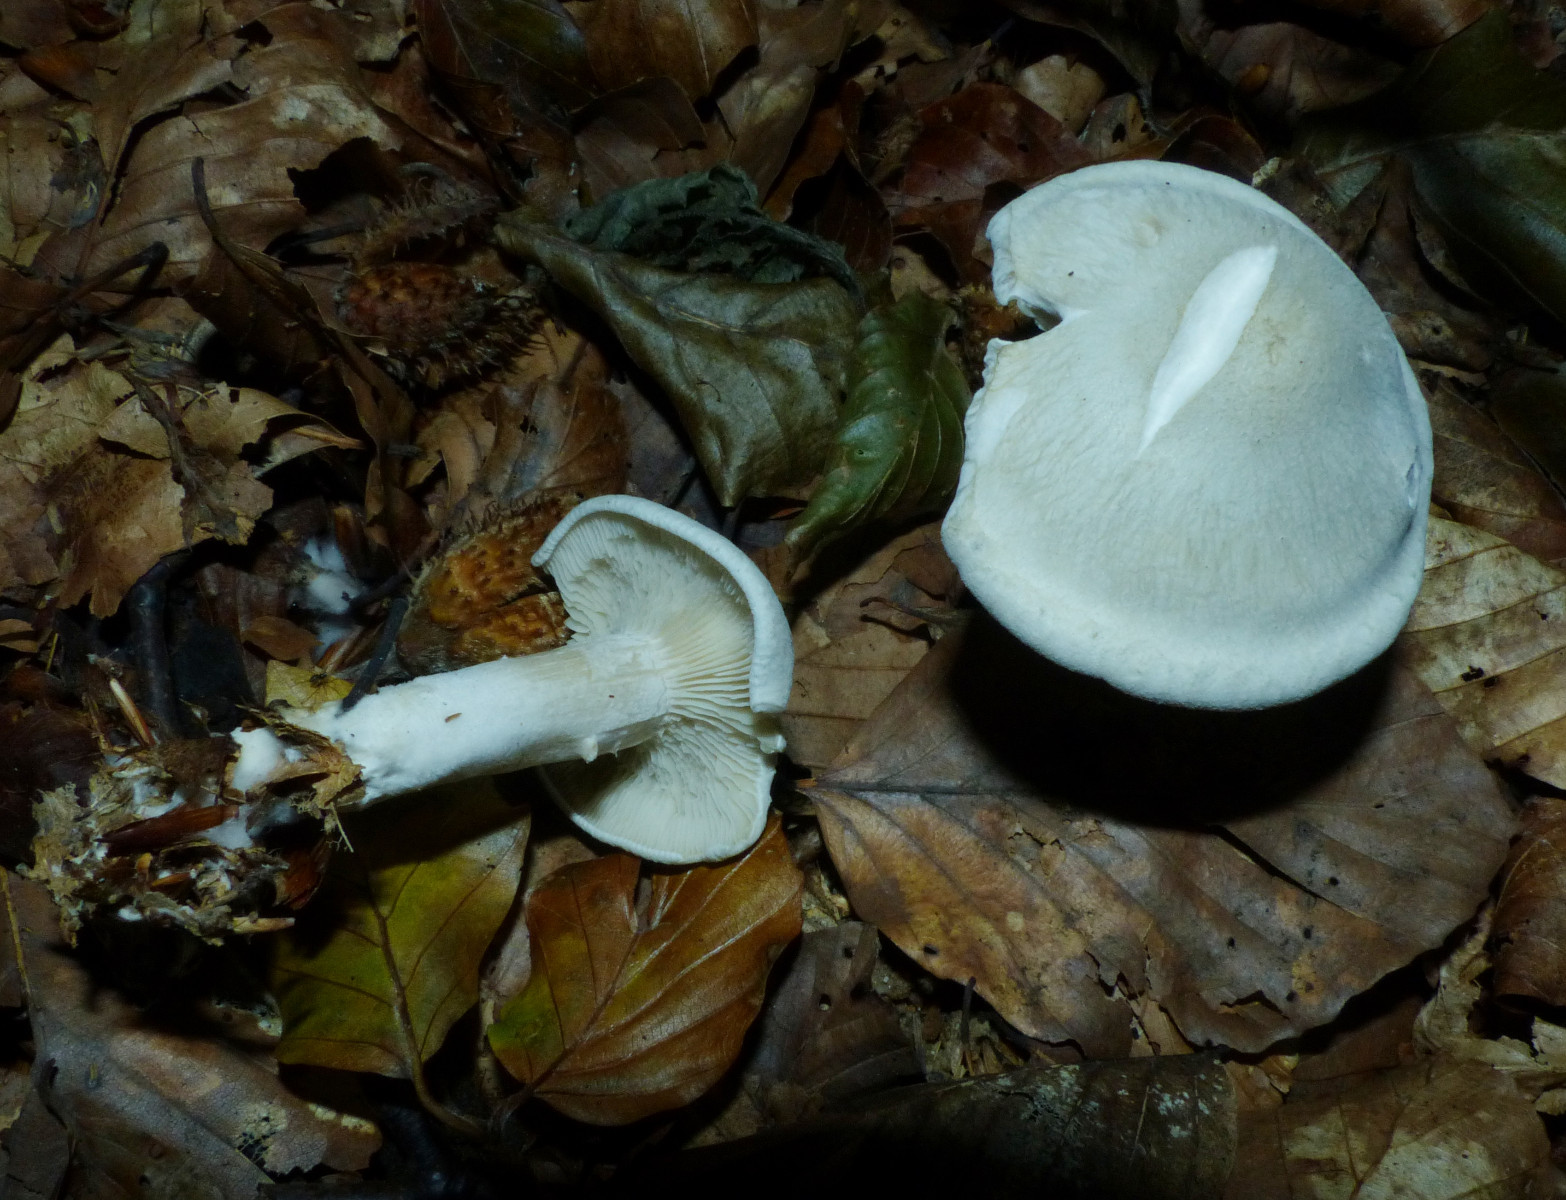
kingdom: Fungi
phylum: Basidiomycota
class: Agaricomycetes
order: Agaricales
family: Tricholomataceae
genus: Clitocybe
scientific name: Clitocybe odora
